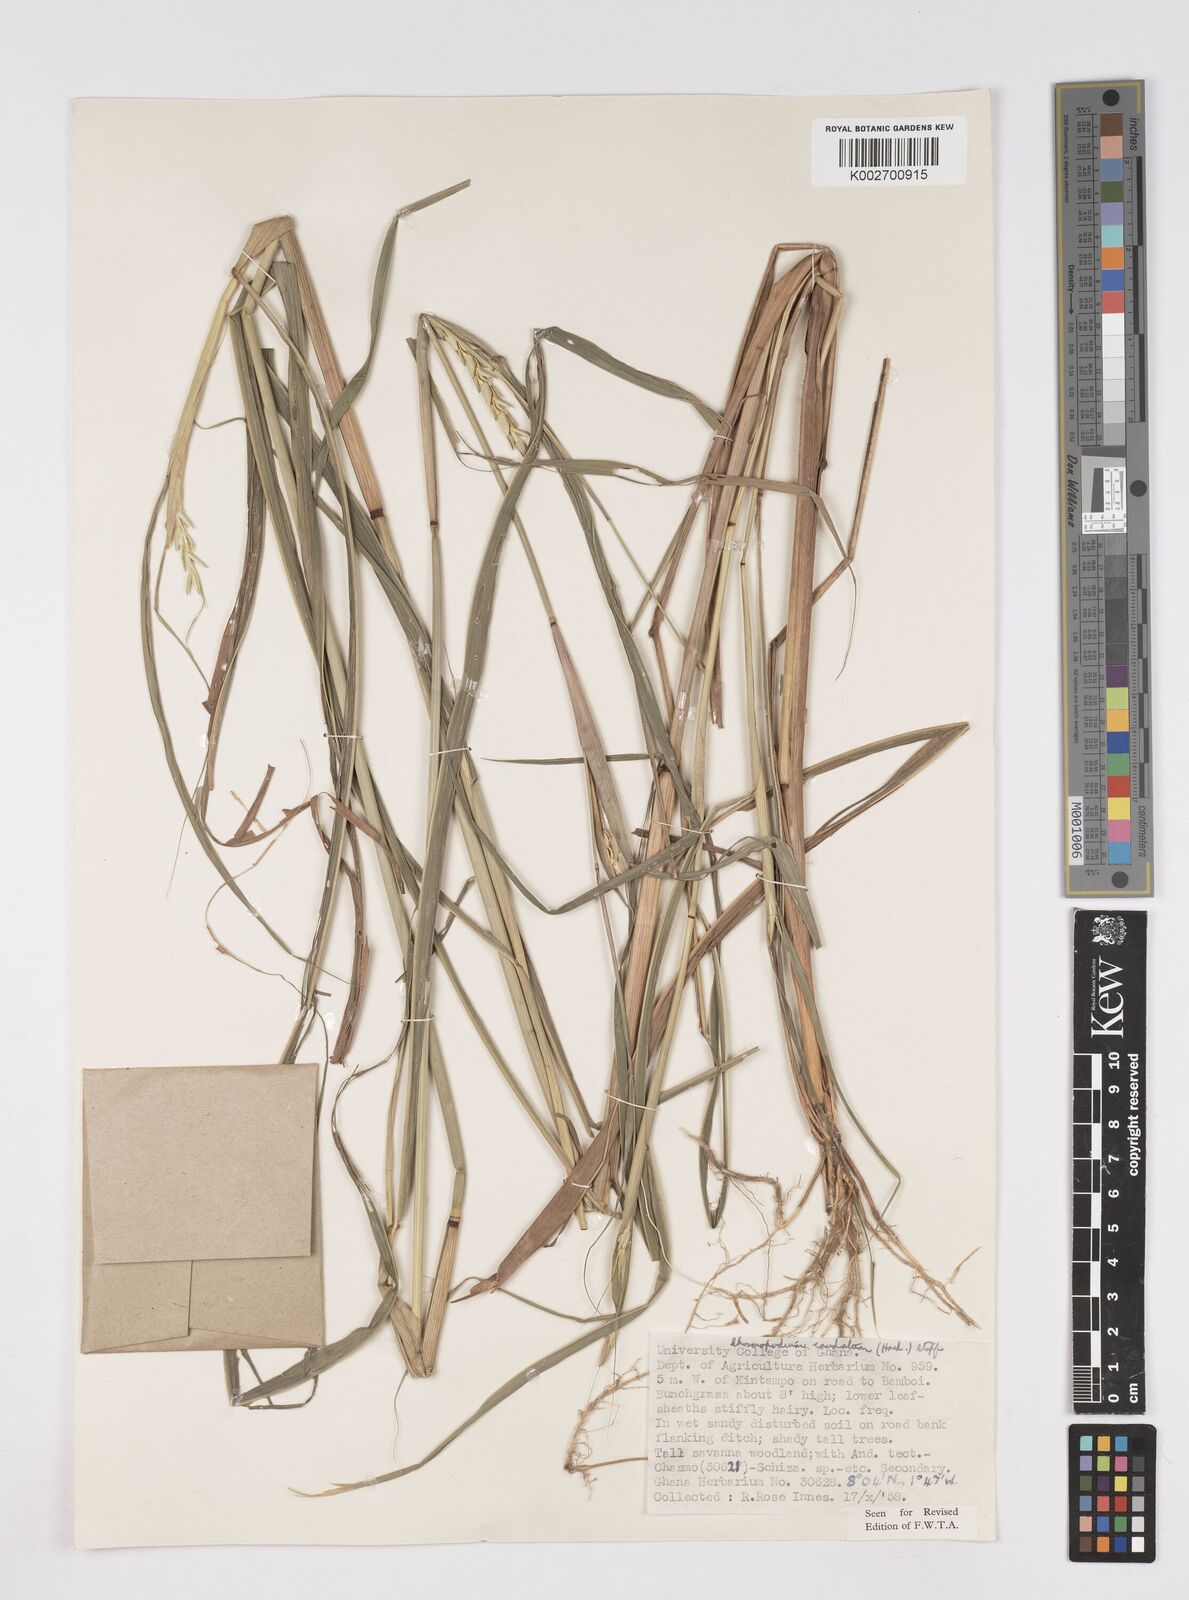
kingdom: Plantae
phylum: Tracheophyta
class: Liliopsida
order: Poales
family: Poaceae
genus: Chasmopodium
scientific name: Chasmopodium caudatum
